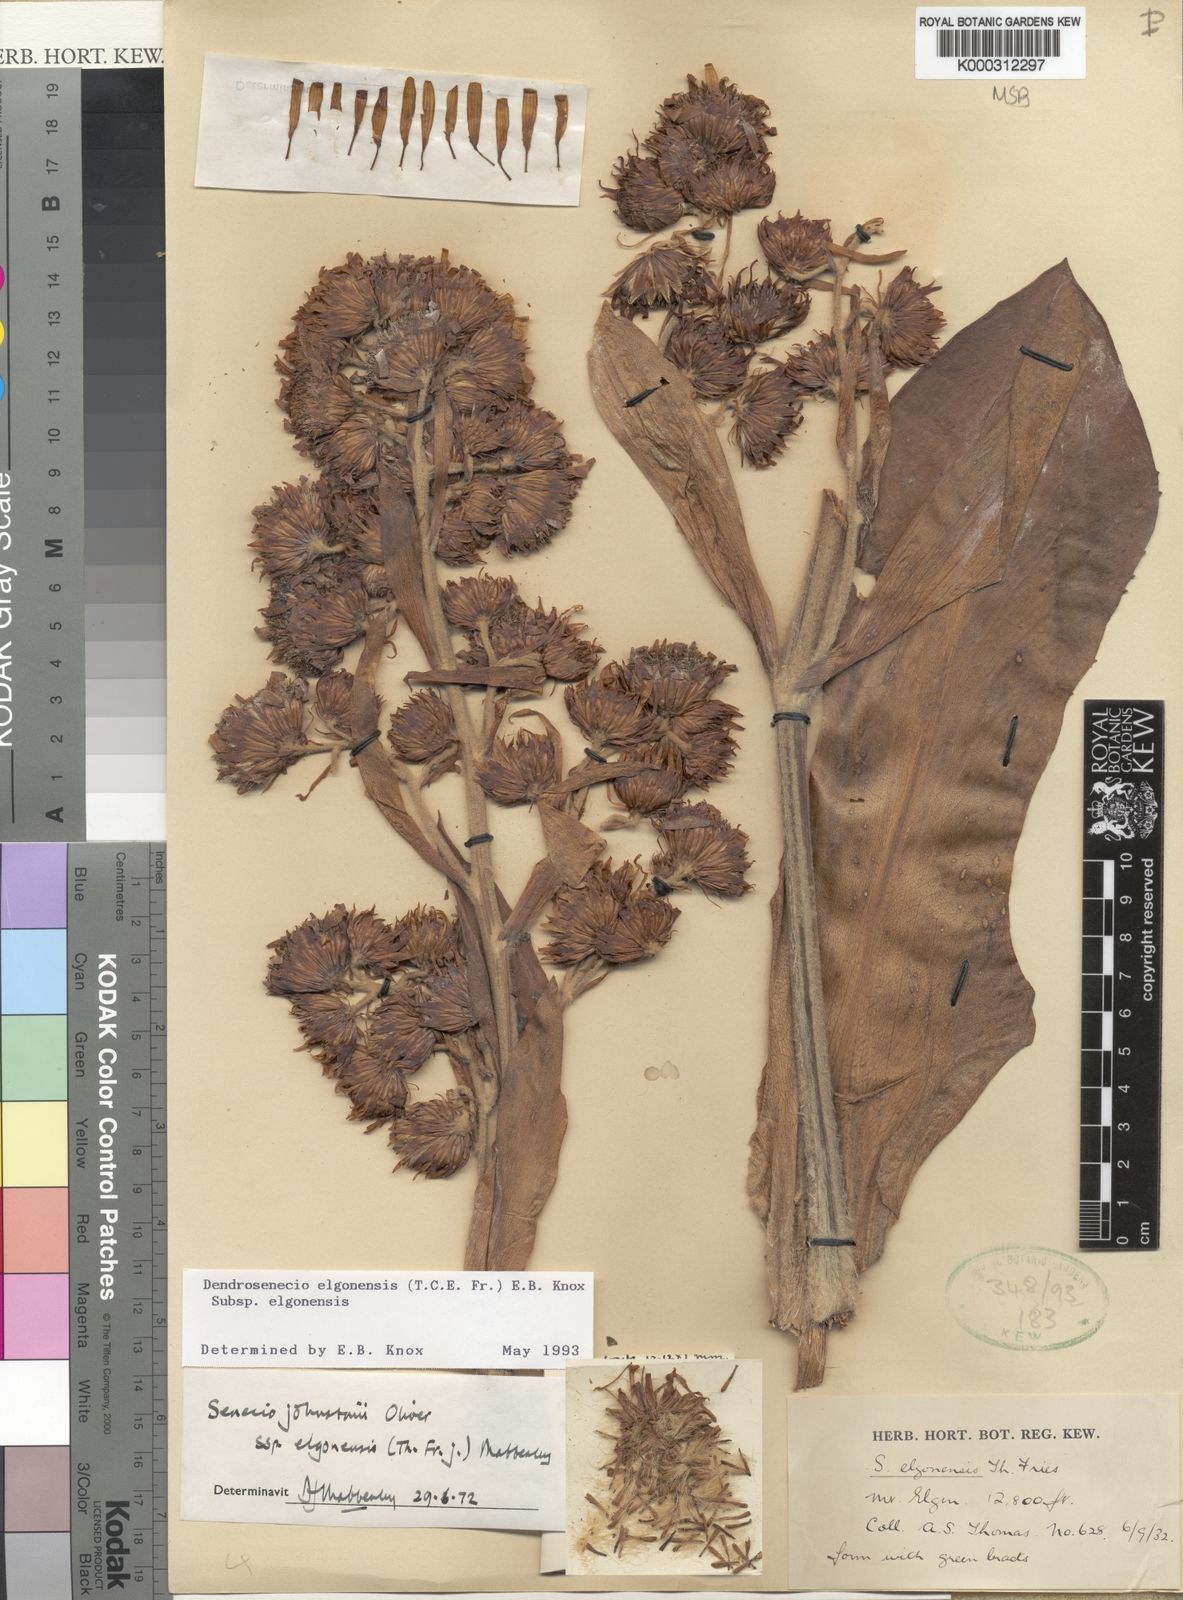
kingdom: Plantae
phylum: Tracheophyta
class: Magnoliopsida
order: Asterales
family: Asteraceae
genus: Dendrosenecio
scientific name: Dendrosenecio elgonensis
